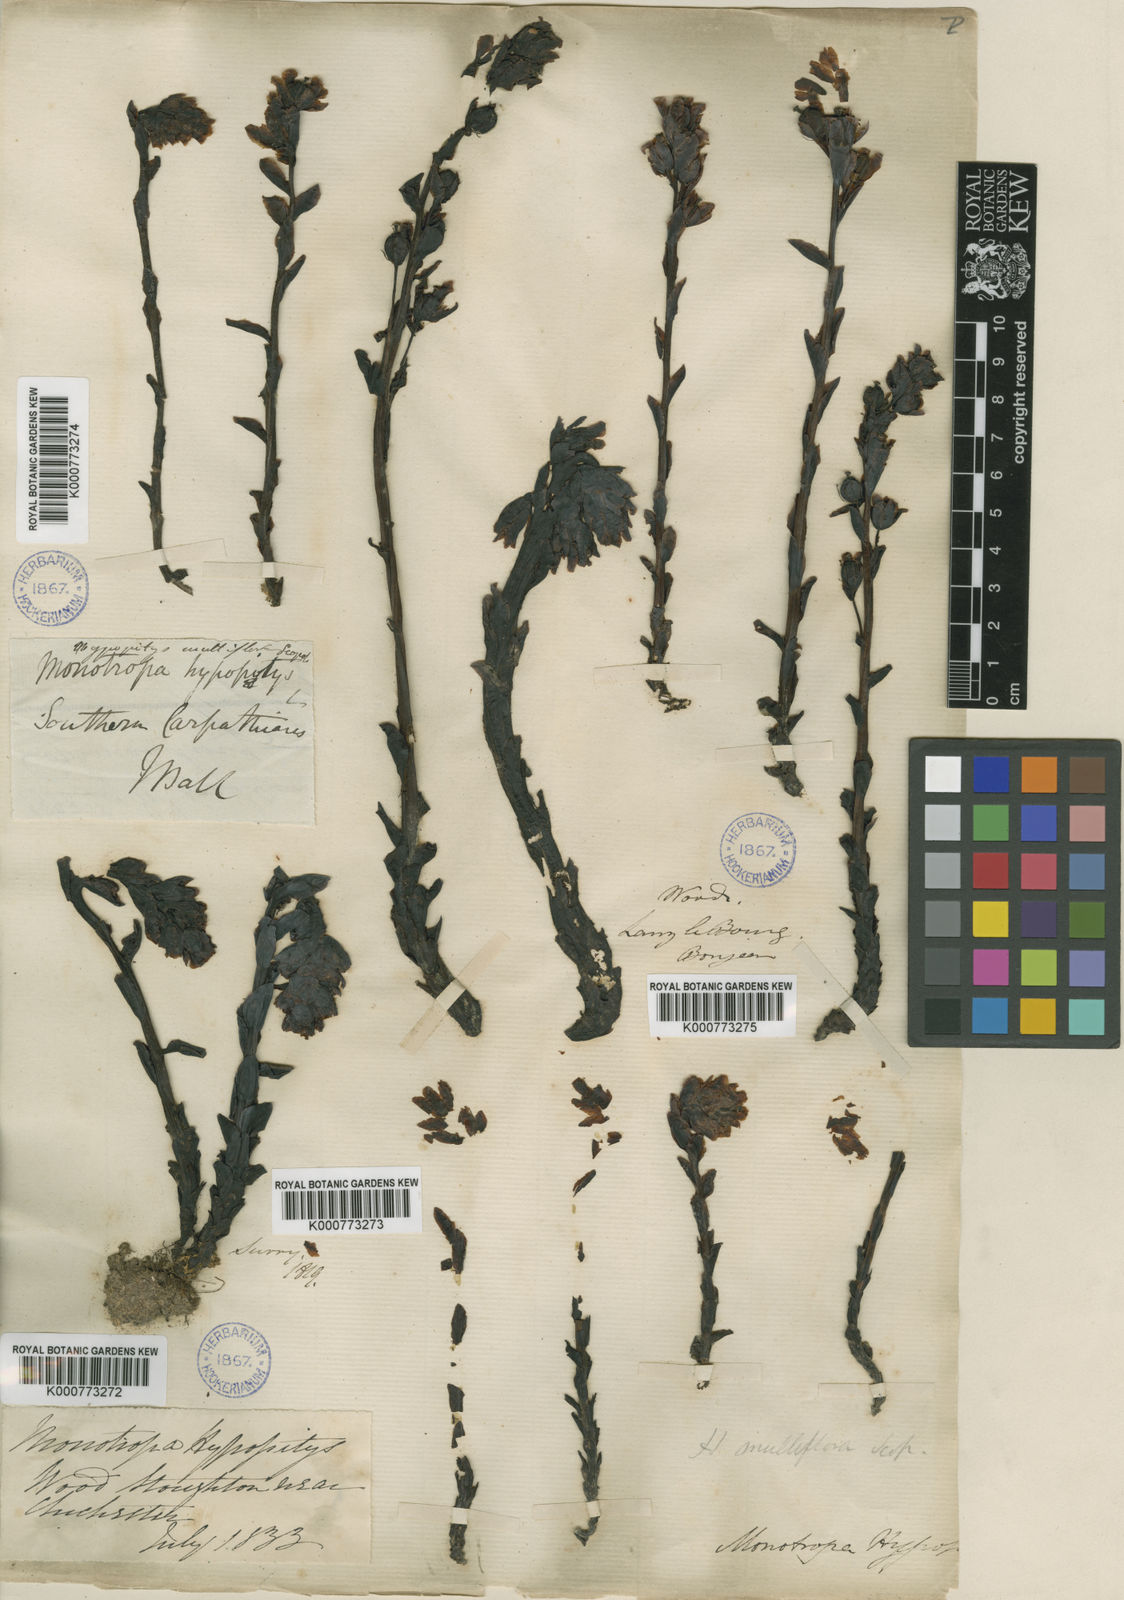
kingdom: Plantae
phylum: Tracheophyta
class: Magnoliopsida
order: Ericales
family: Ericaceae
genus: Monotropa
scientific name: Monotropa
